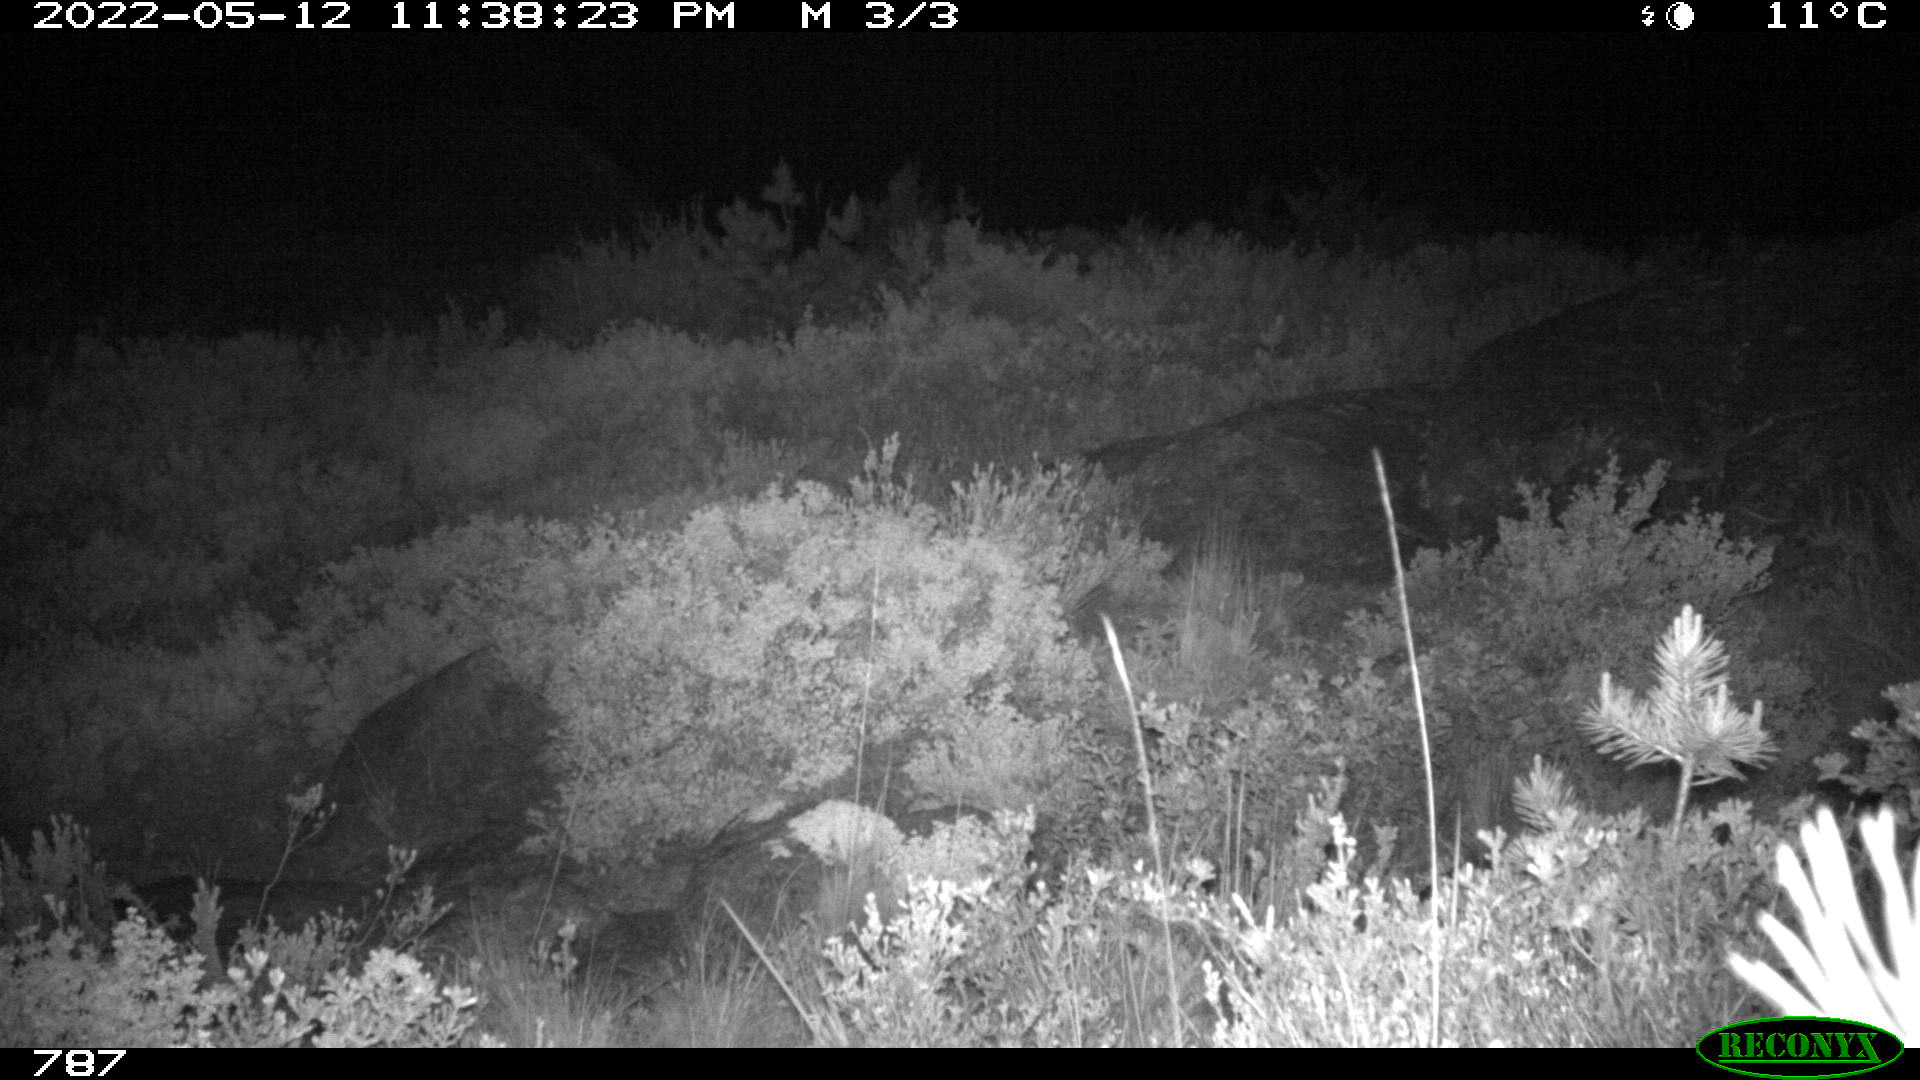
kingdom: Animalia
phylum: Chordata
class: Mammalia
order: Artiodactyla
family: Cervidae
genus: Capreolus
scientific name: Capreolus capreolus
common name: Western roe deer
